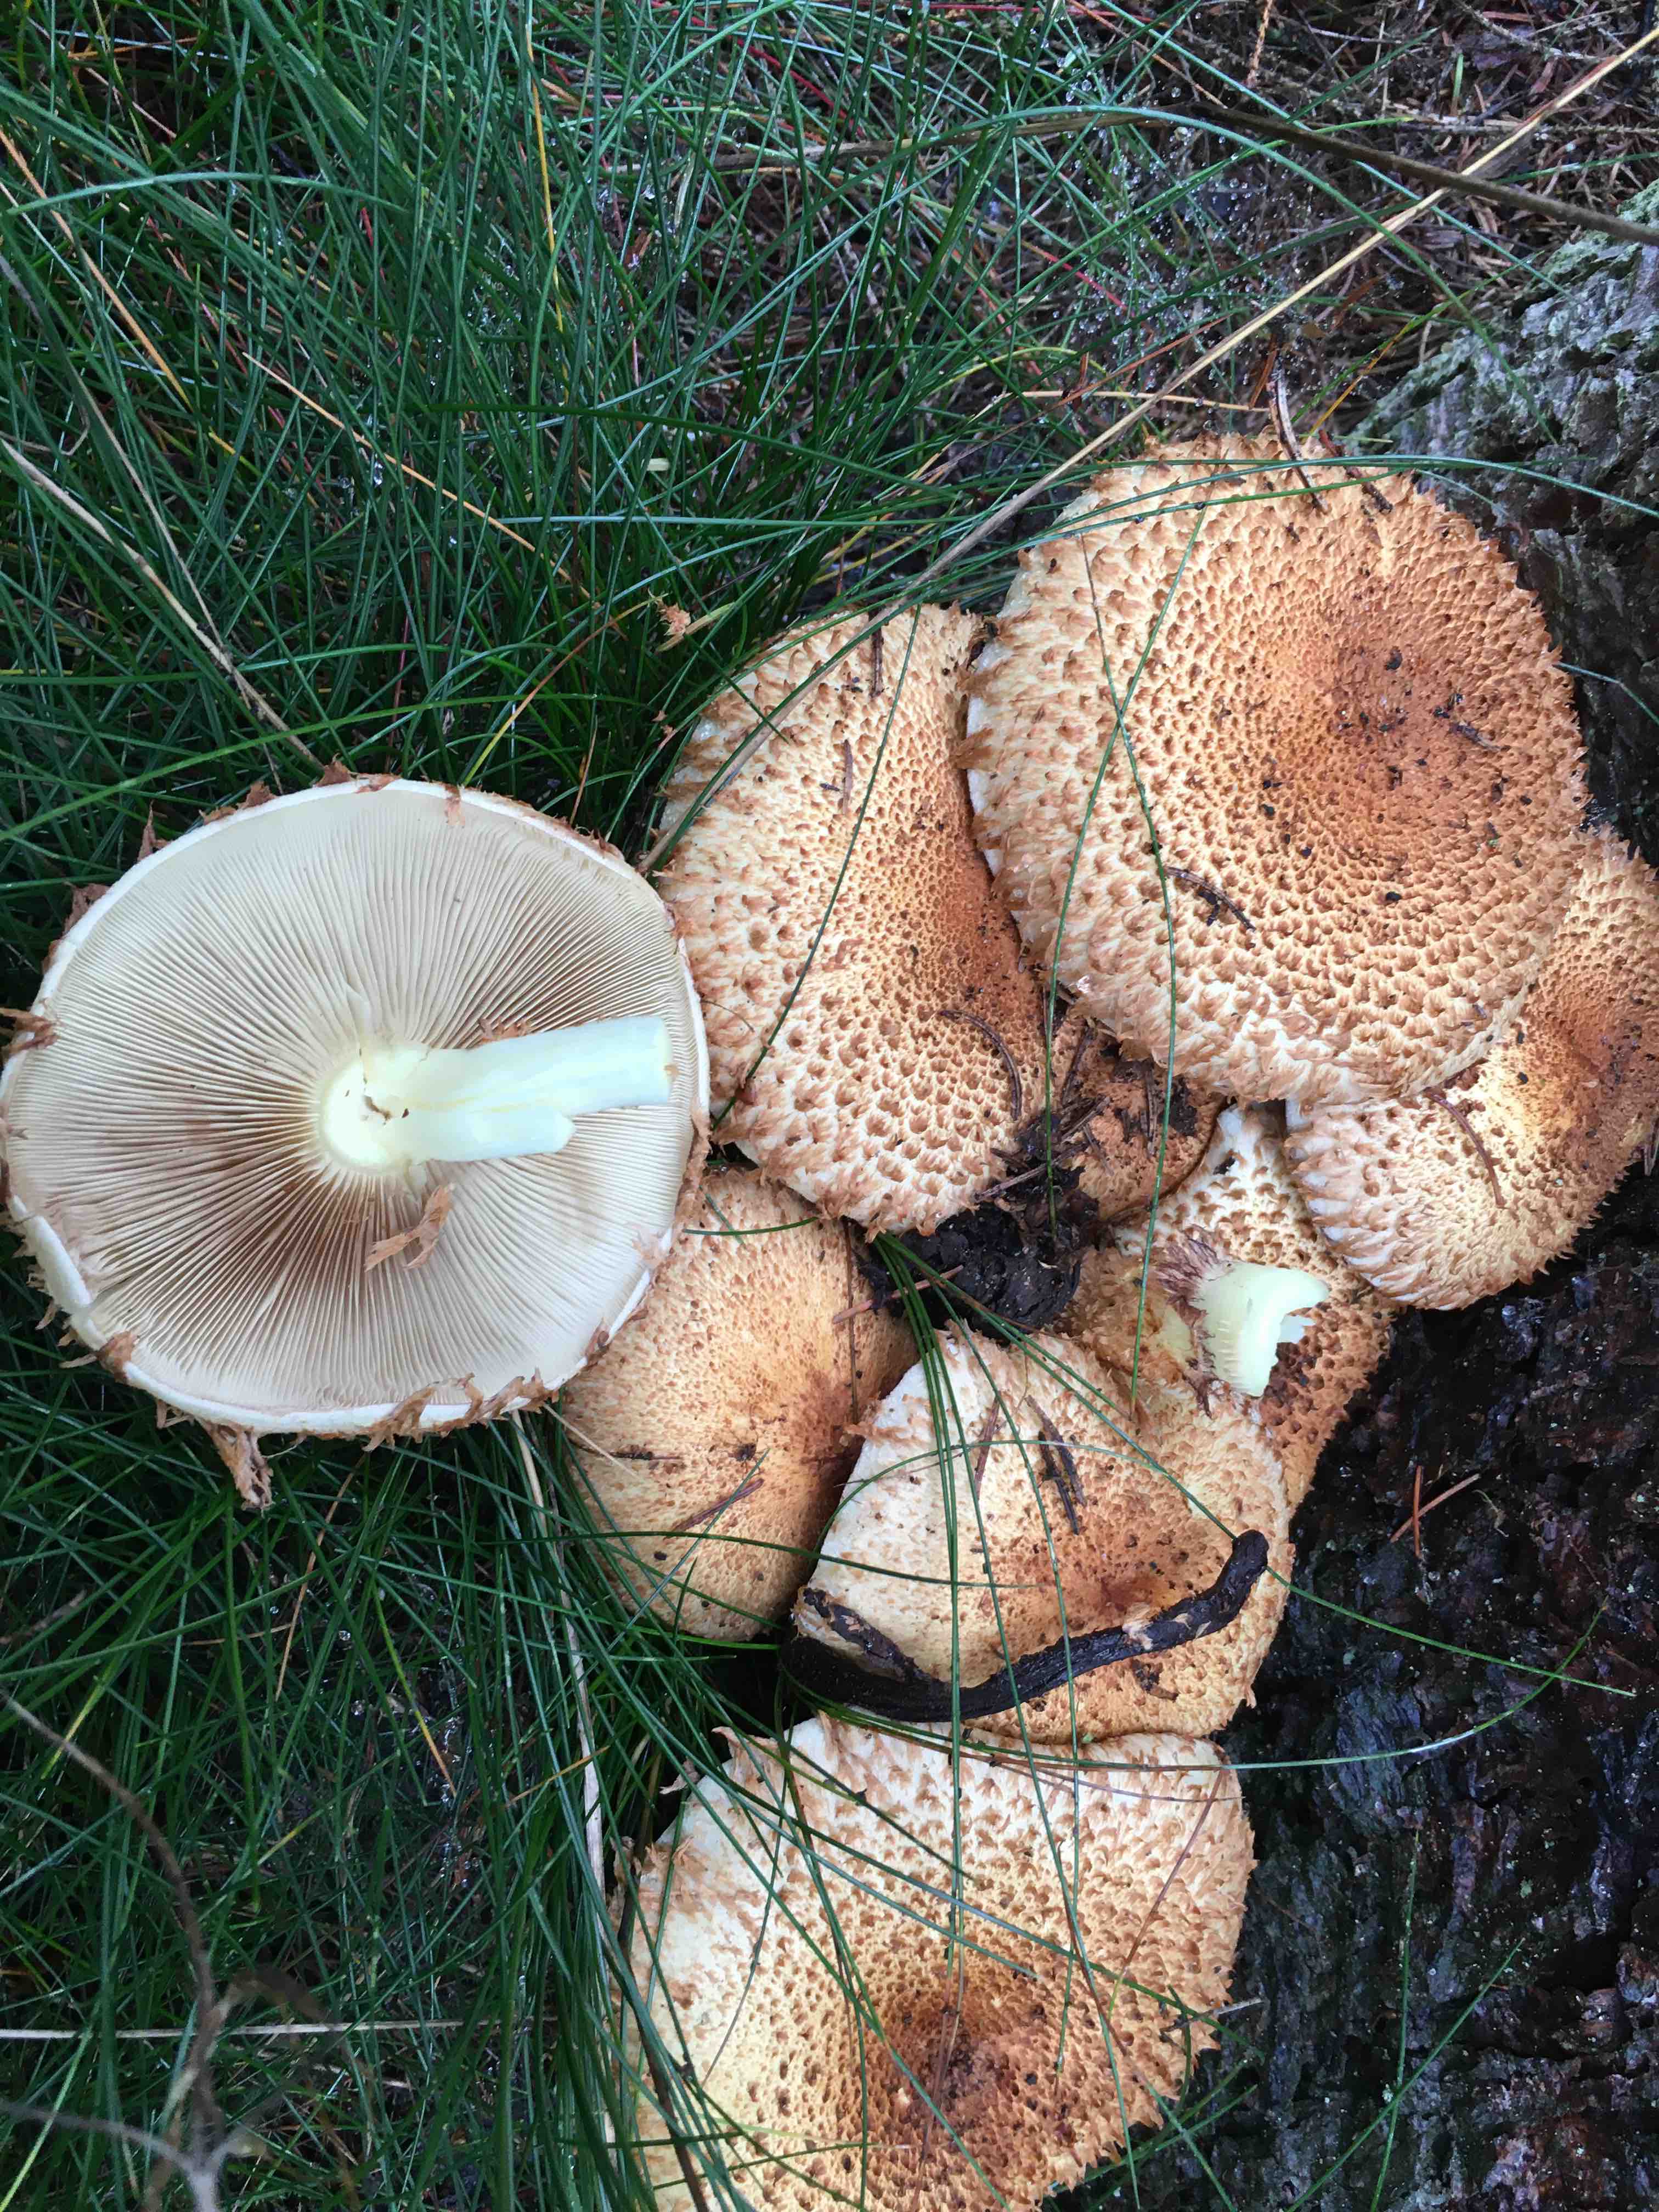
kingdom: Fungi
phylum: Basidiomycota
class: Agaricomycetes
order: Agaricales
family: Strophariaceae
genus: Pholiota
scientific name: Pholiota squarrosa
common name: krumskællet skælhat
